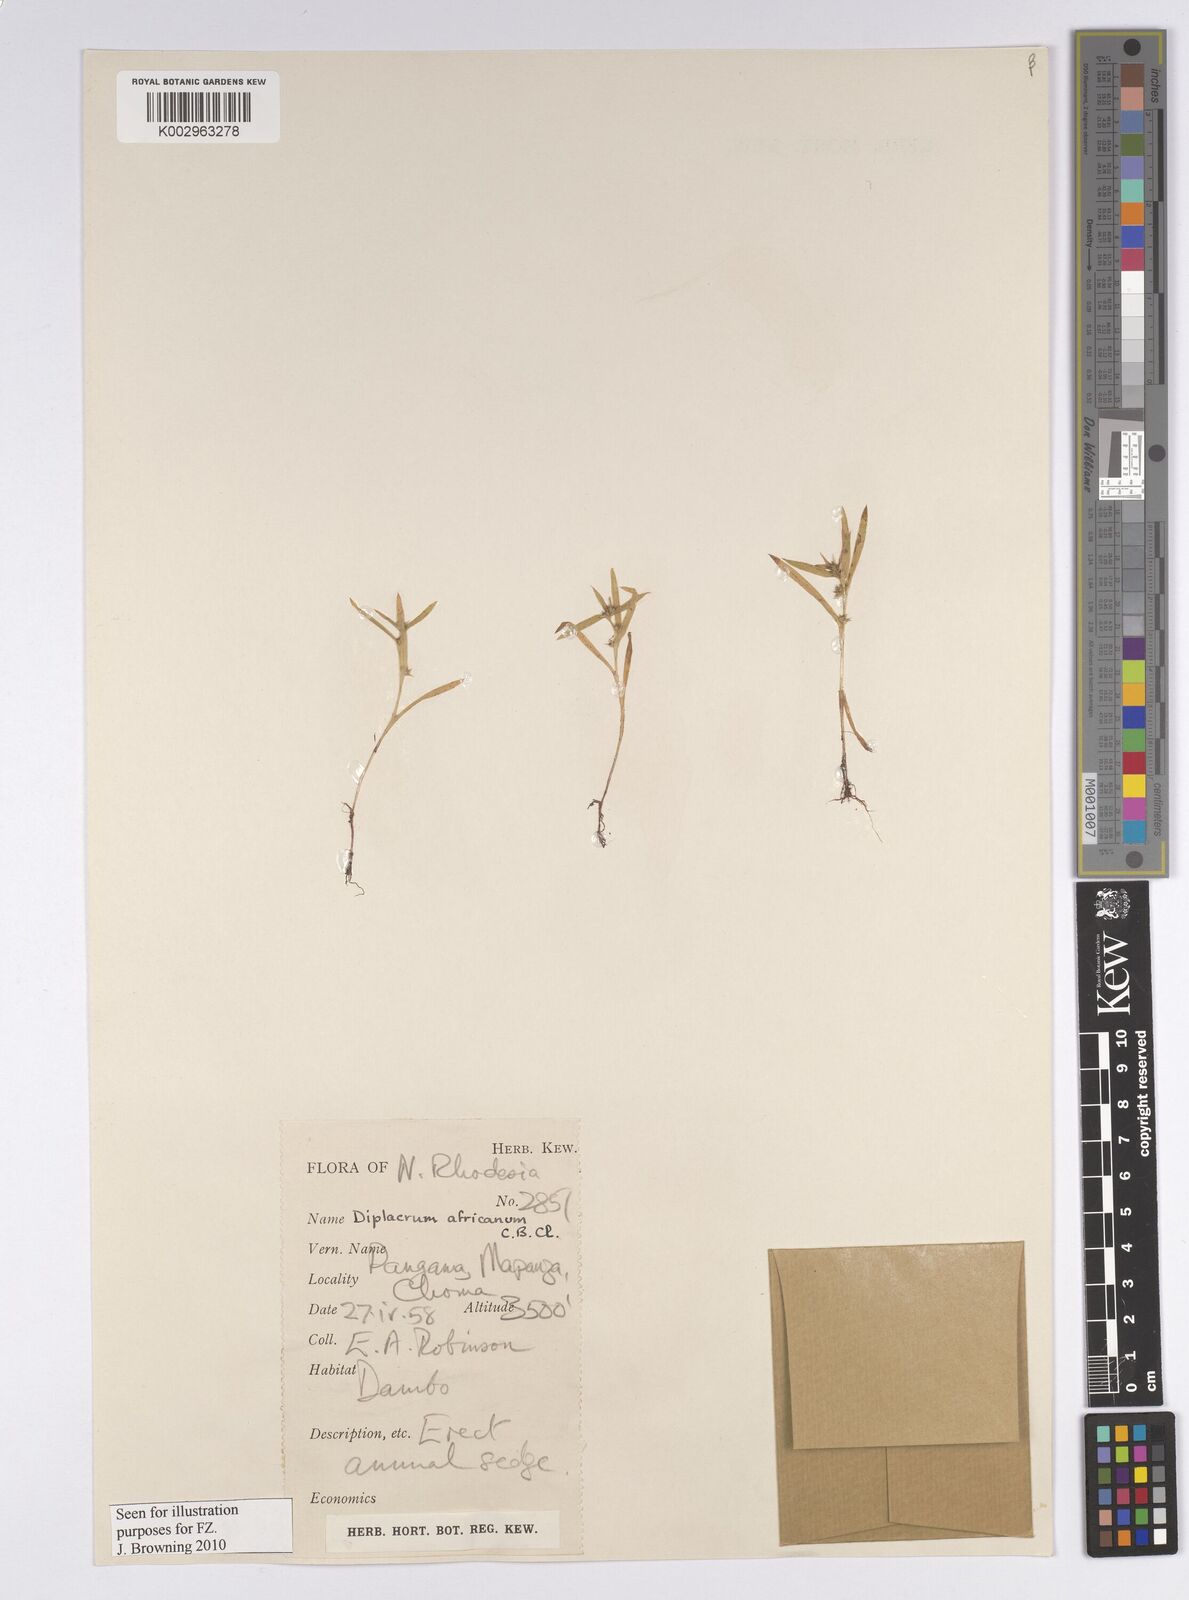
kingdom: Plantae
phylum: Tracheophyta
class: Liliopsida
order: Poales
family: Cyperaceae
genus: Diplacrum
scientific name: Diplacrum africanum
